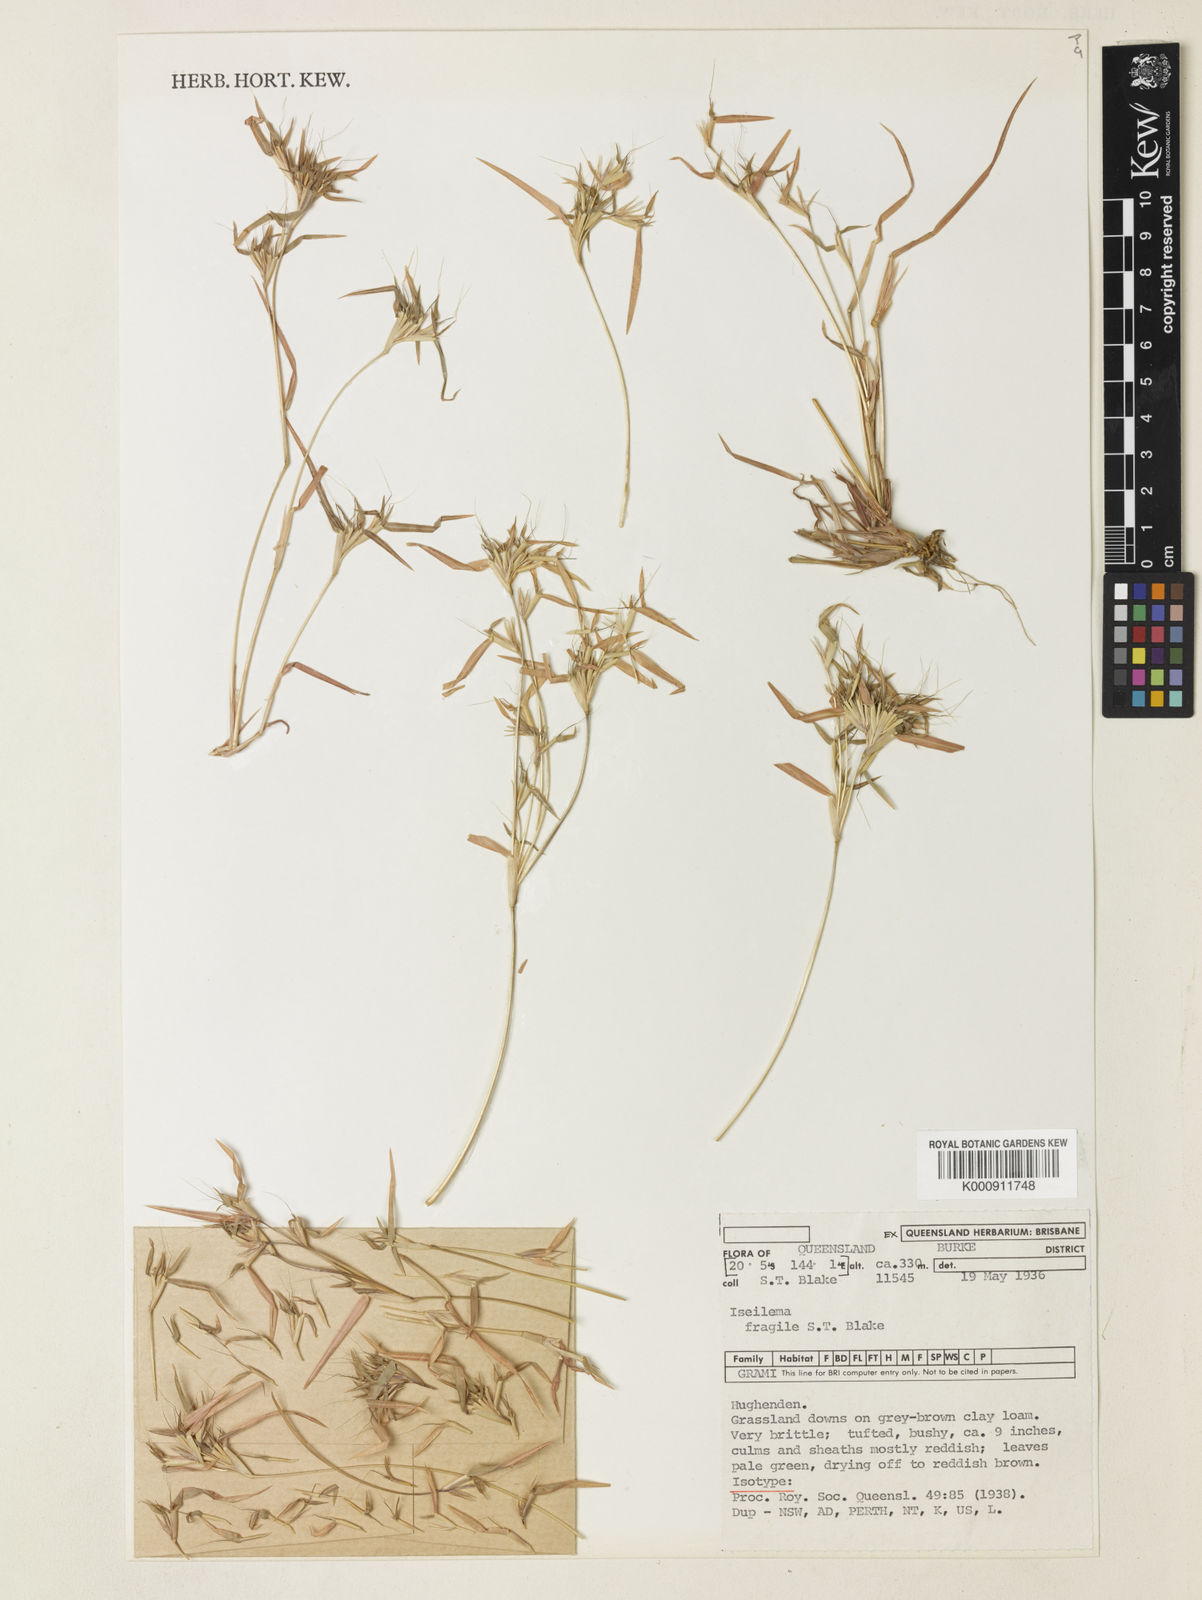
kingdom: Plantae
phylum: Tracheophyta
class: Liliopsida
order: Poales
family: Poaceae
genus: Iseilema
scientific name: Iseilema fragile
